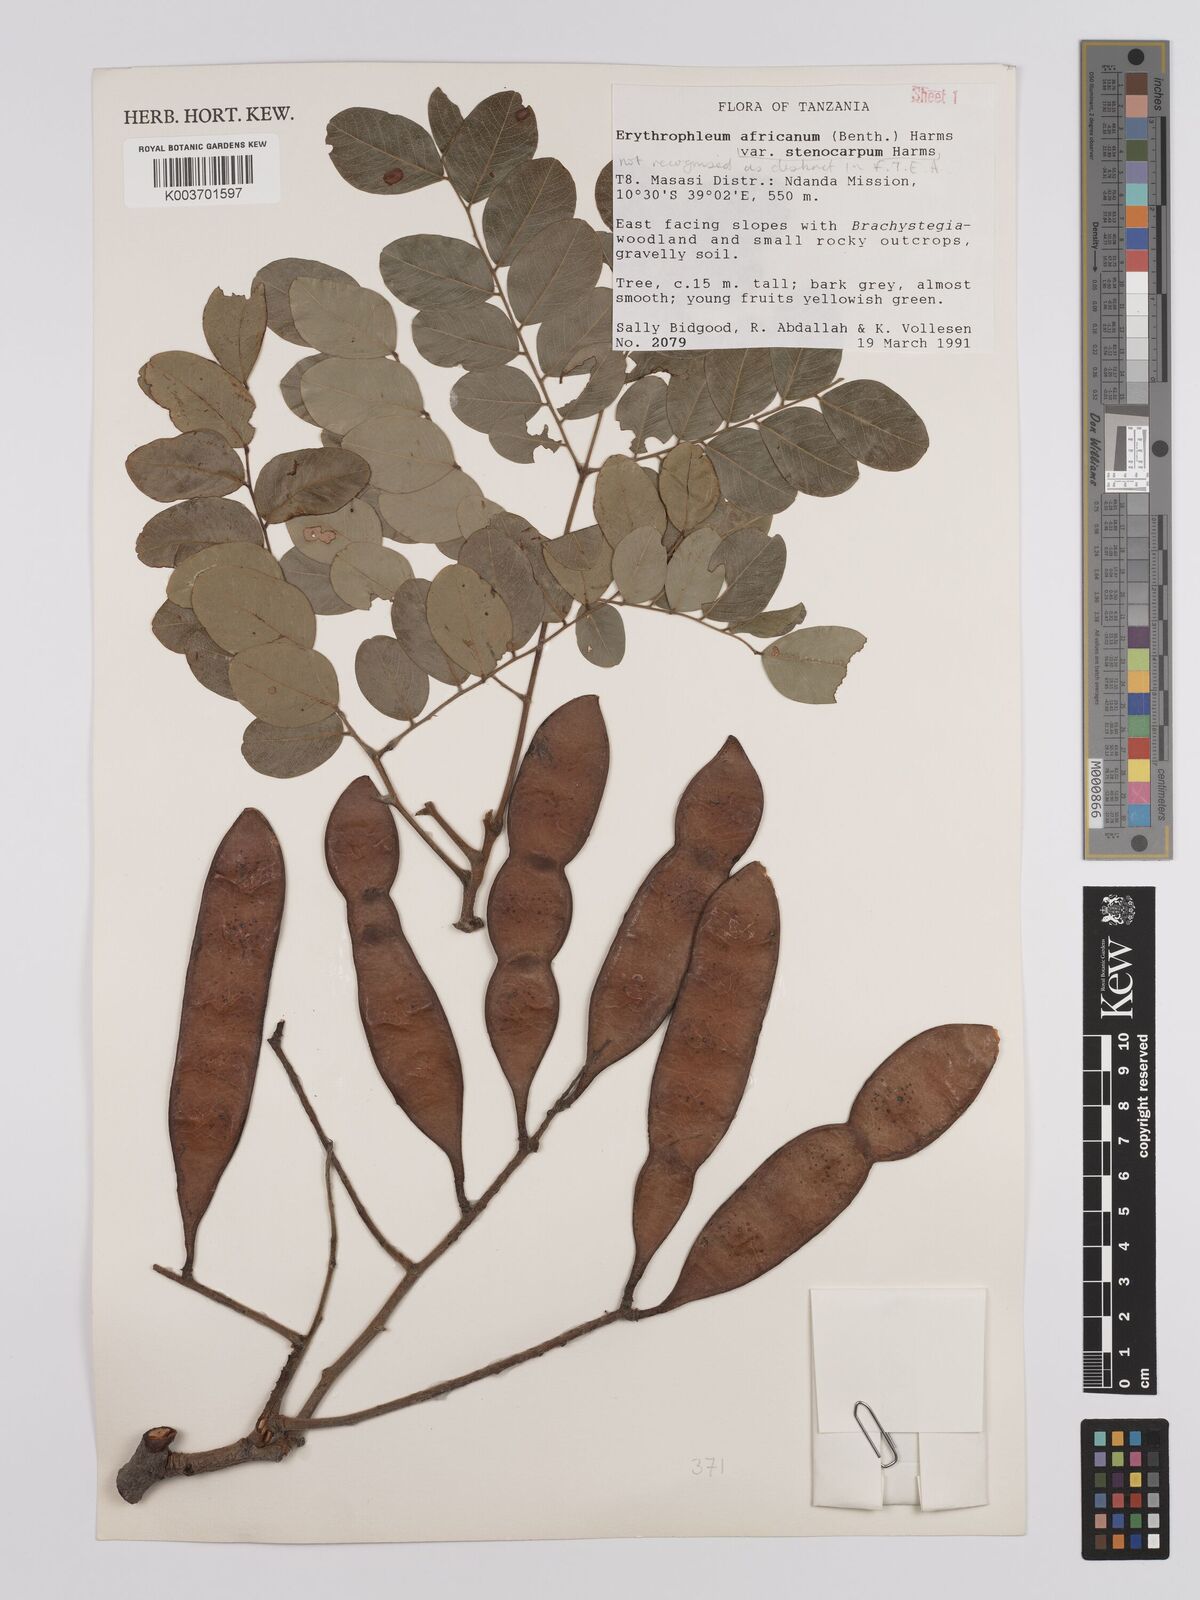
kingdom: Plantae
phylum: Tracheophyta
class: Magnoliopsida
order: Fabales
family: Fabaceae
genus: Erythrophleum
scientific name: Erythrophleum africanum
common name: African blackwood
